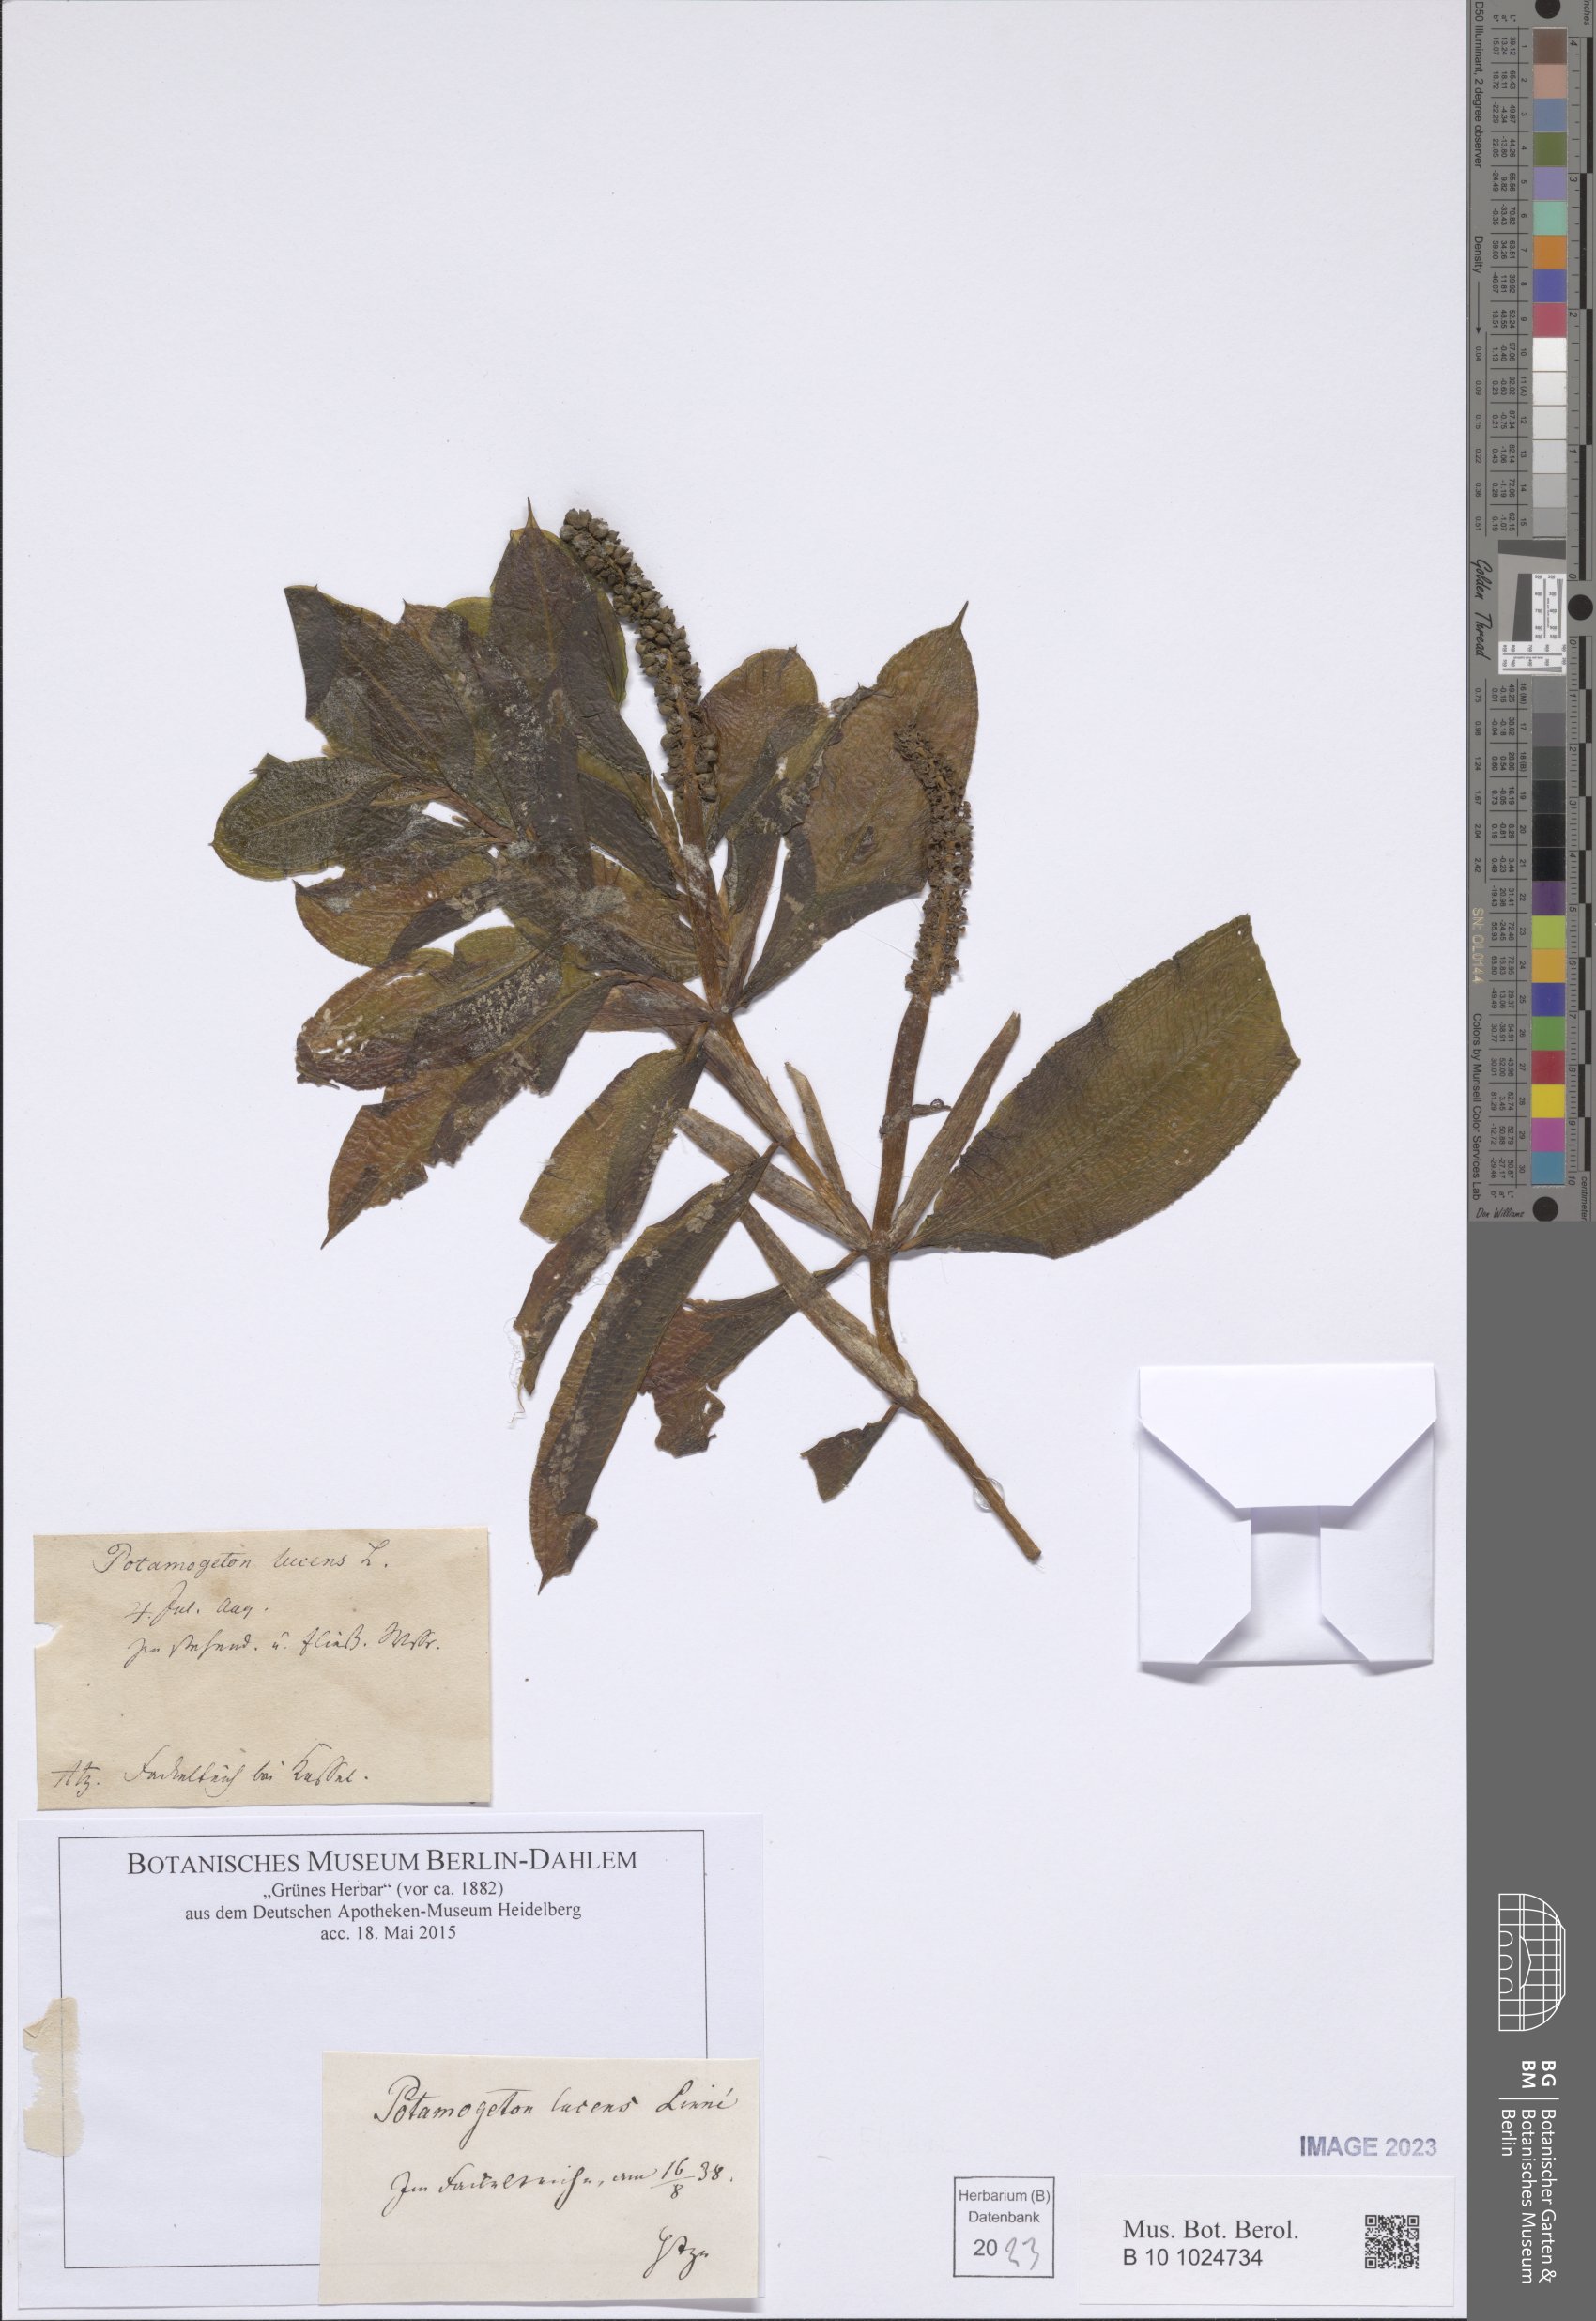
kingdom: Plantae
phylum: Tracheophyta
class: Liliopsida
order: Alismatales
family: Potamogetonaceae
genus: Potamogeton
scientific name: Potamogeton lucens
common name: Shining pondweed
